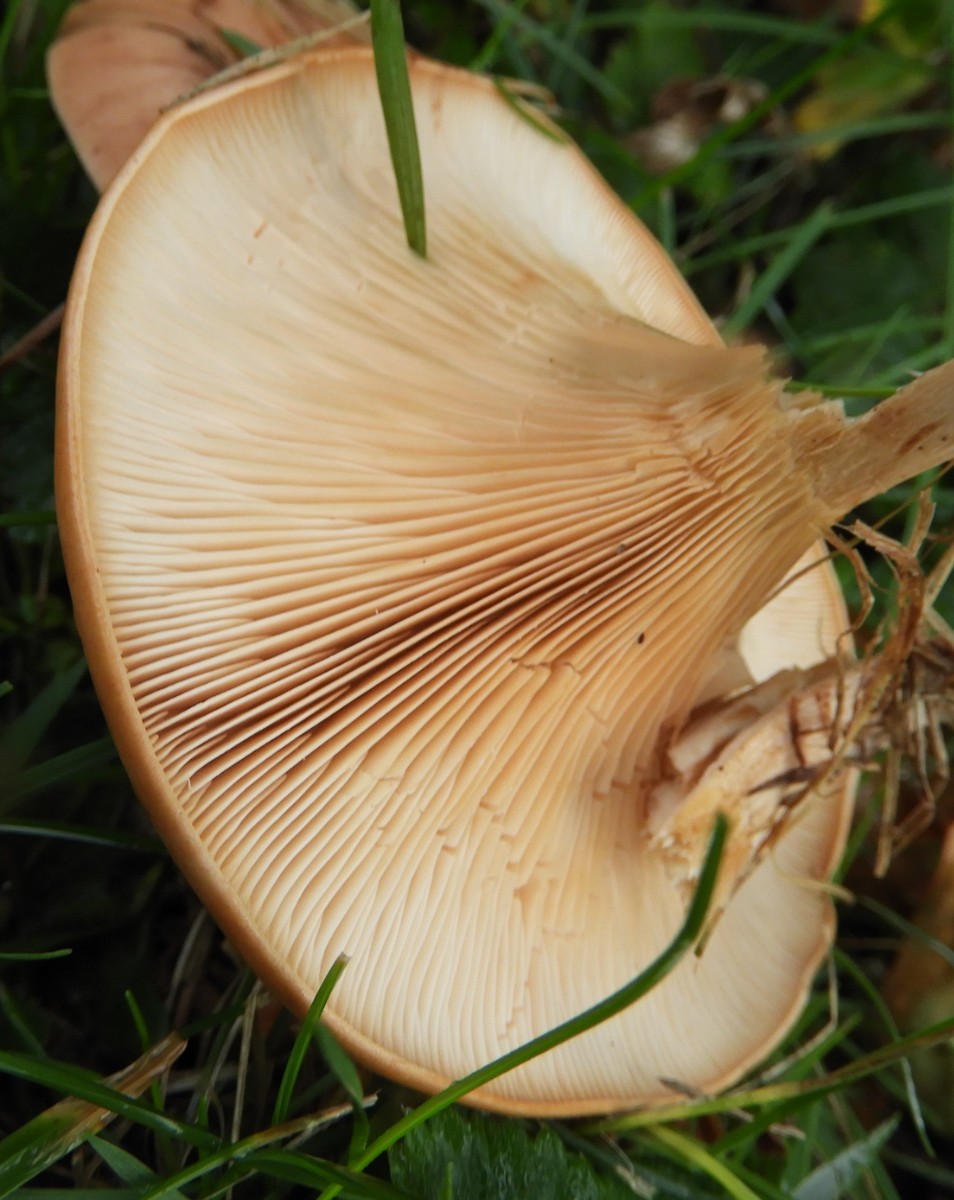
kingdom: Fungi
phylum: Basidiomycota
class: Agaricomycetes
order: Agaricales
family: Tricholomataceae
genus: Paralepista
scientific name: Paralepista flaccida
